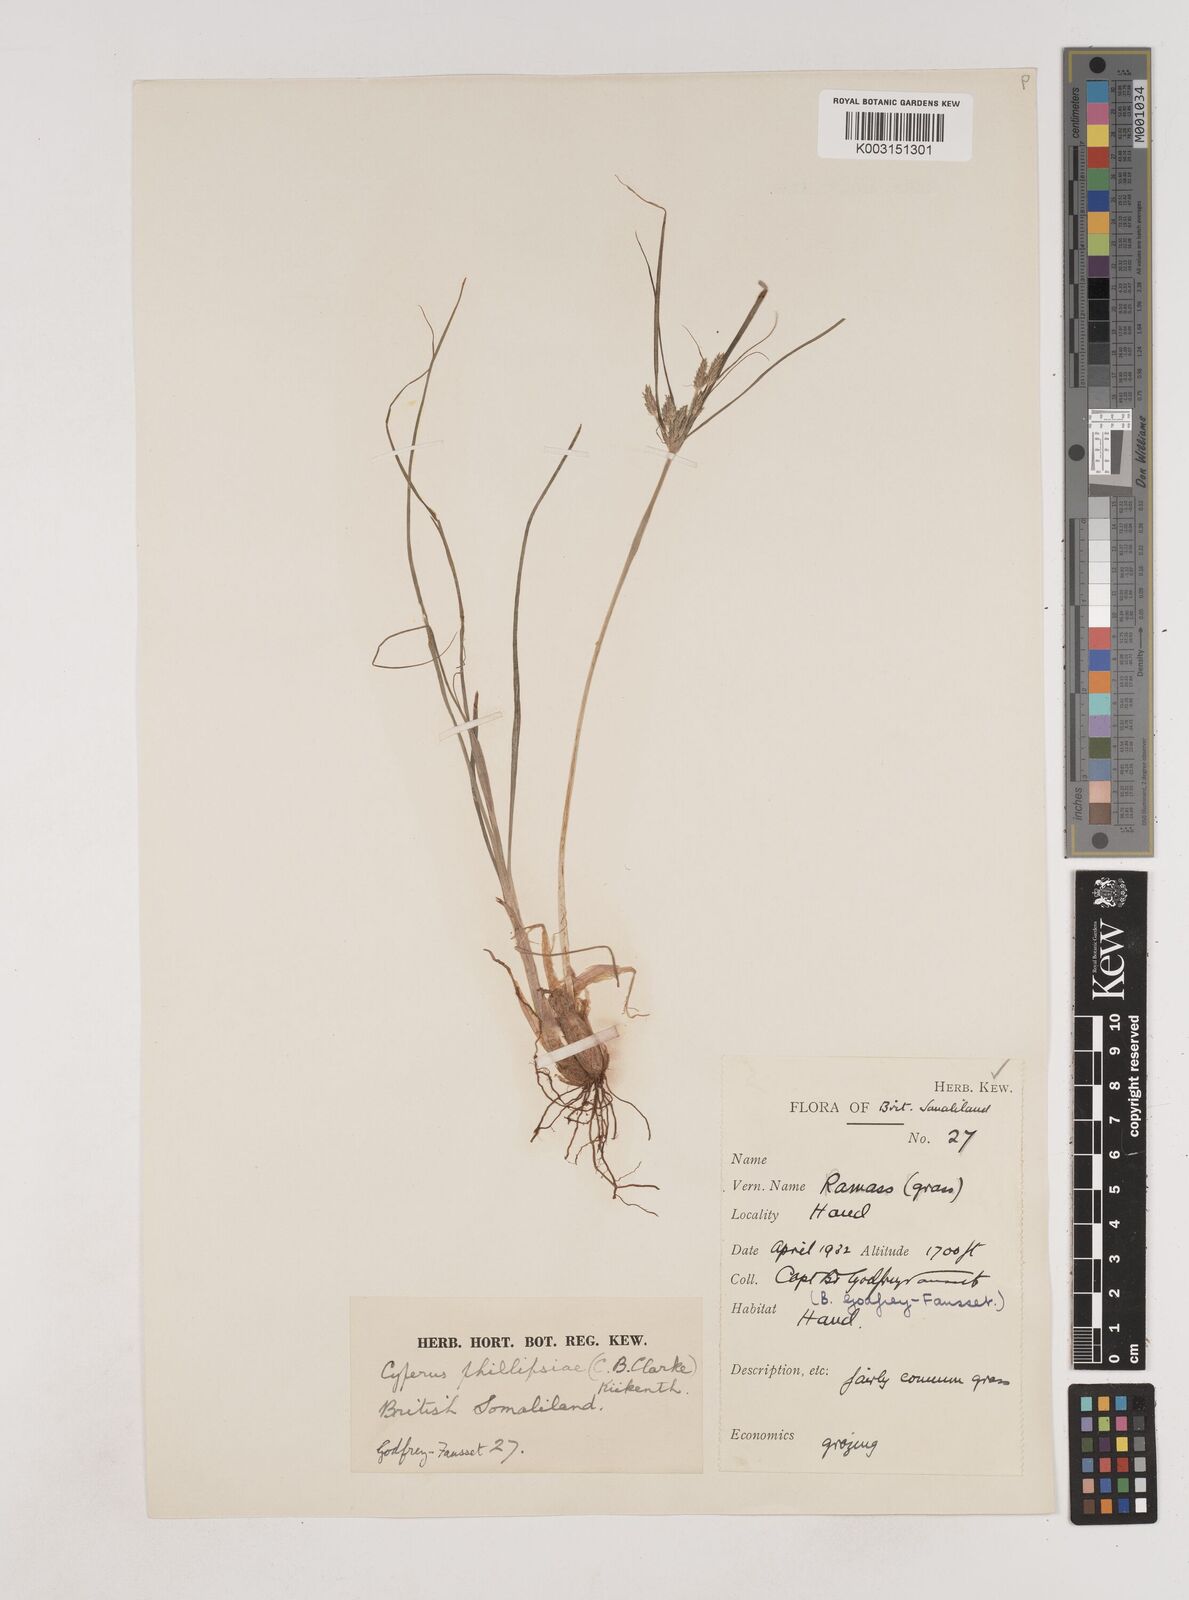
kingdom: Plantae
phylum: Tracheophyta
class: Liliopsida
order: Poales
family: Cyperaceae
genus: Cyperus
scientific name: Cyperus phillipsiae
